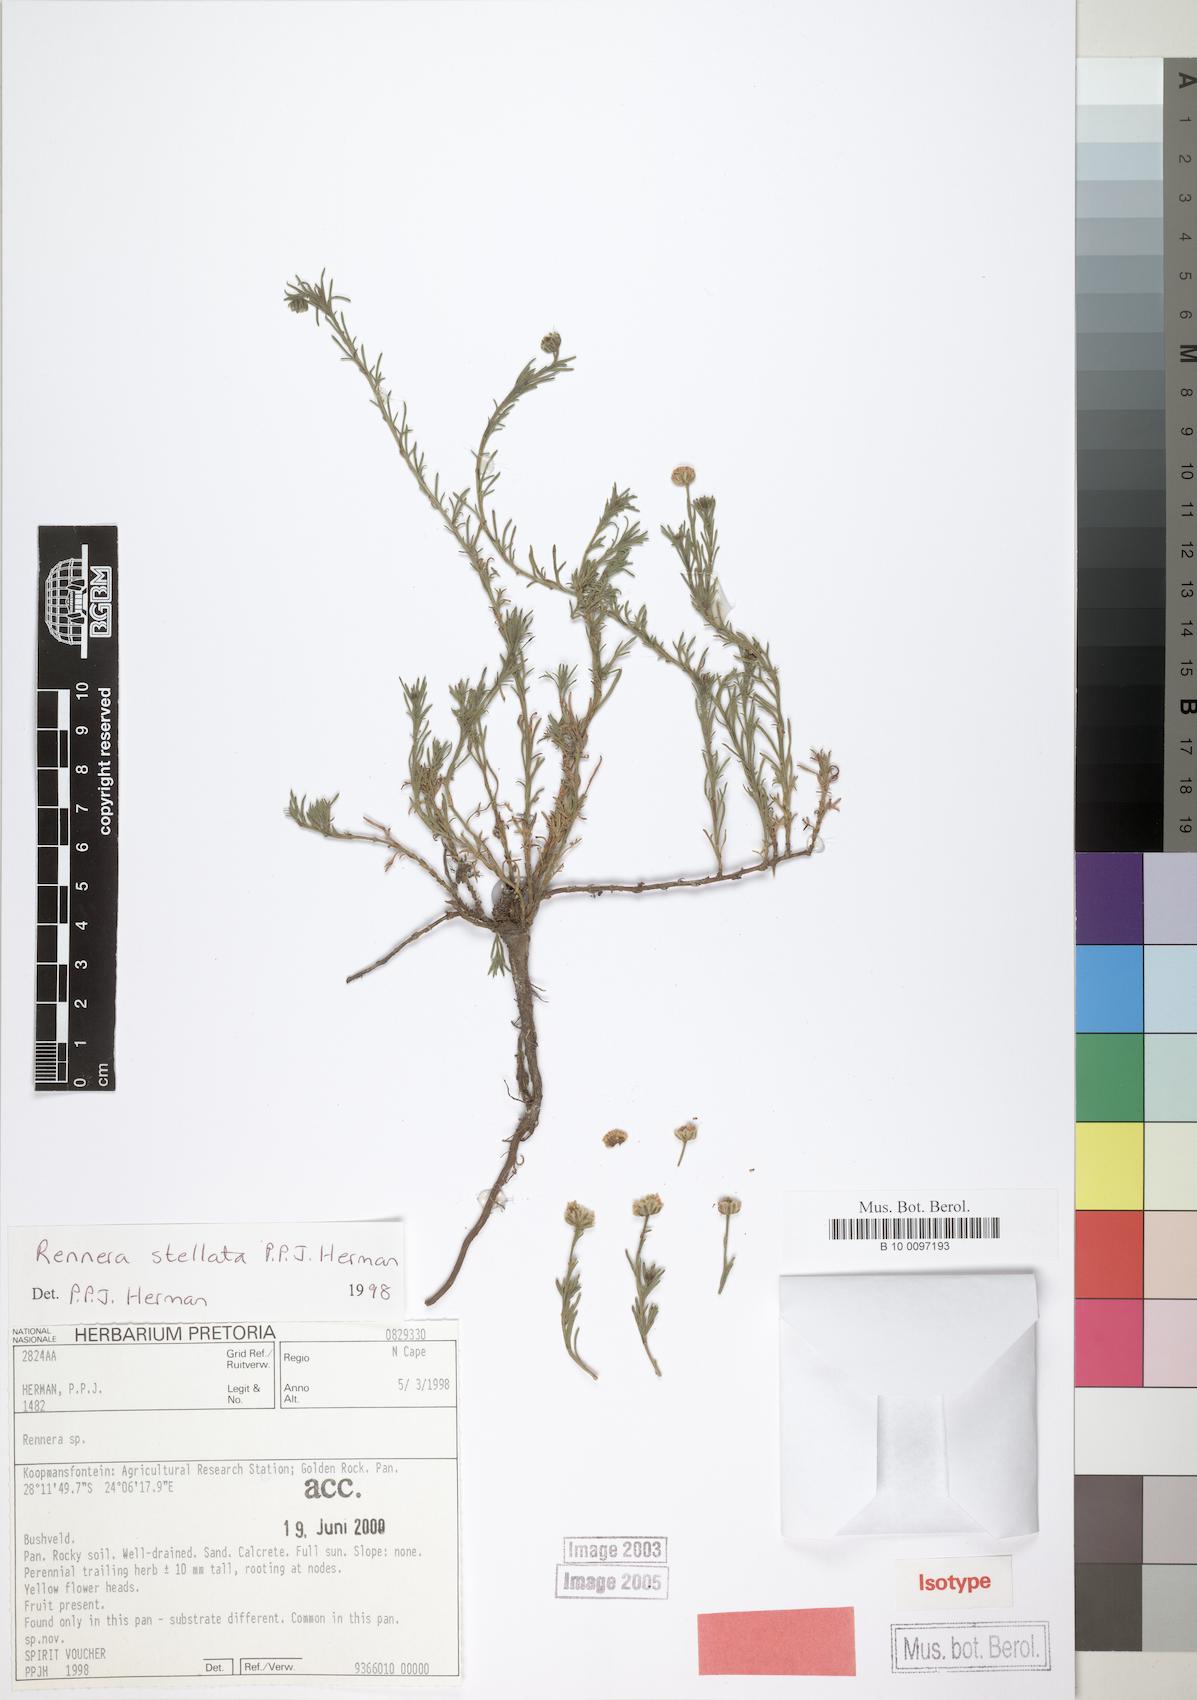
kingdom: Plantae
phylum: Tracheophyta
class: Magnoliopsida
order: Asterales
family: Asteraceae
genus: Pentzia
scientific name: Pentzia stellata
